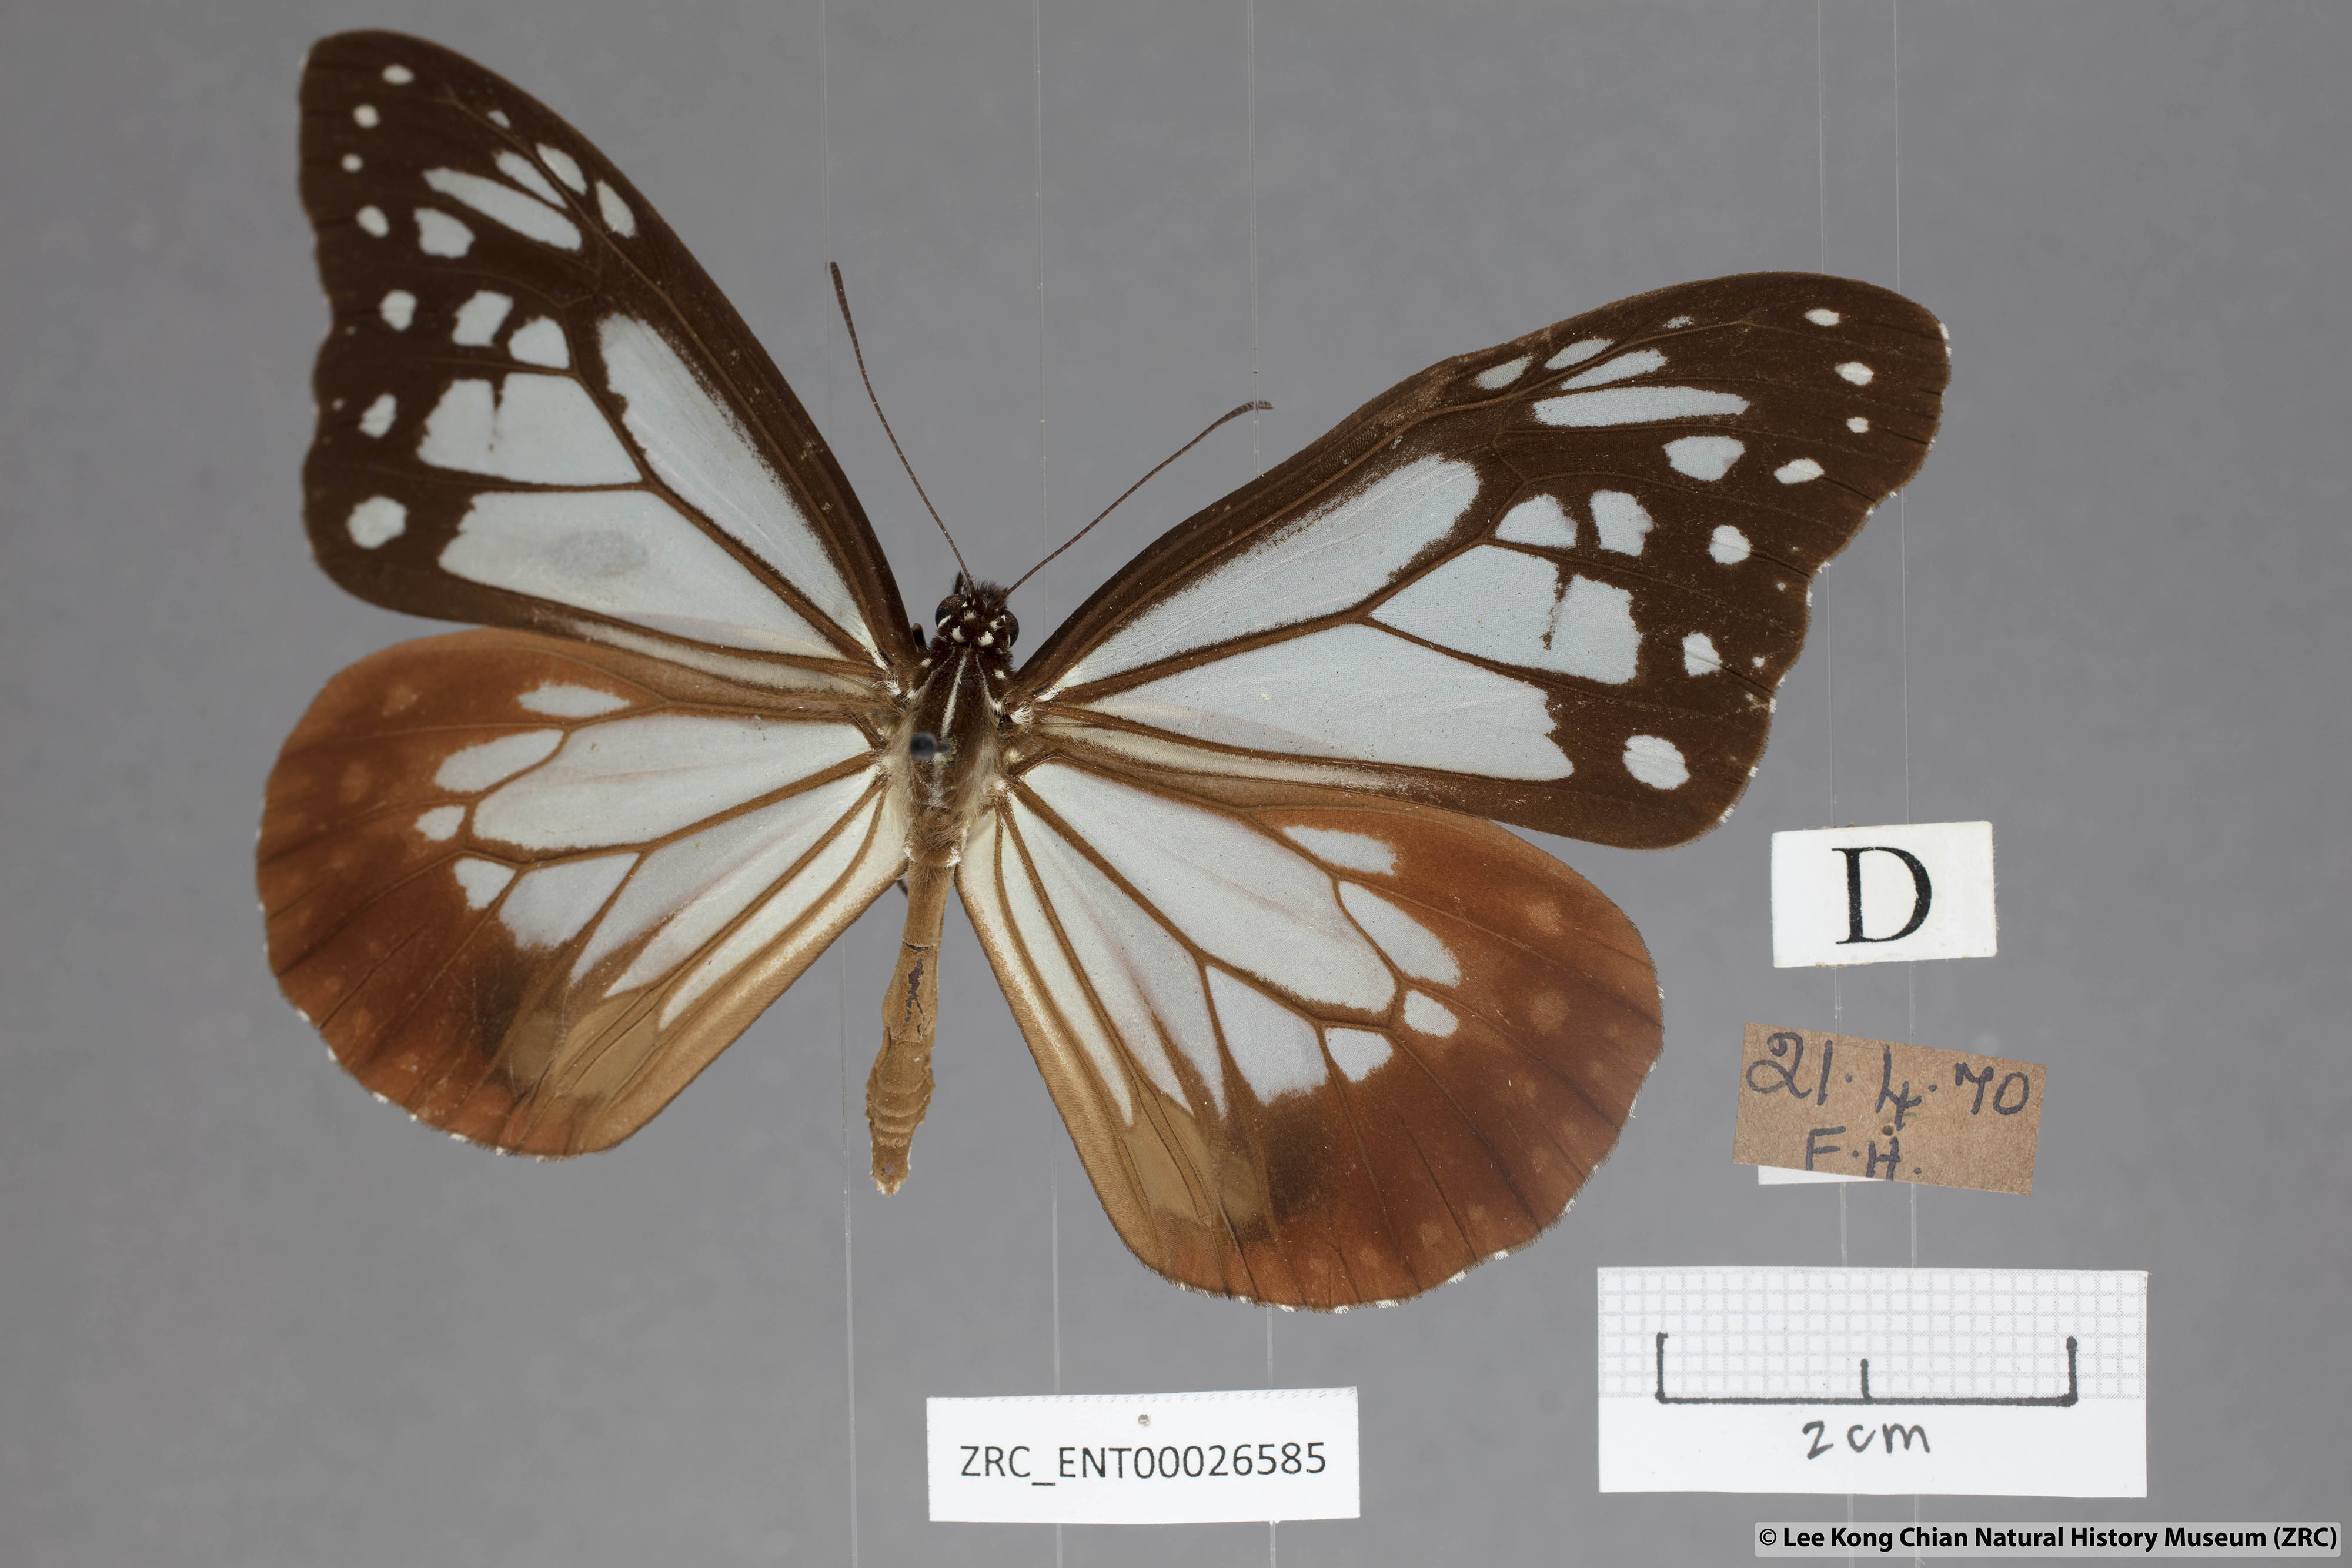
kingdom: Animalia
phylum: Arthropoda
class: Insecta
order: Lepidoptera
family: Nymphalidae
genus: Parantica
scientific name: Parantica sita
